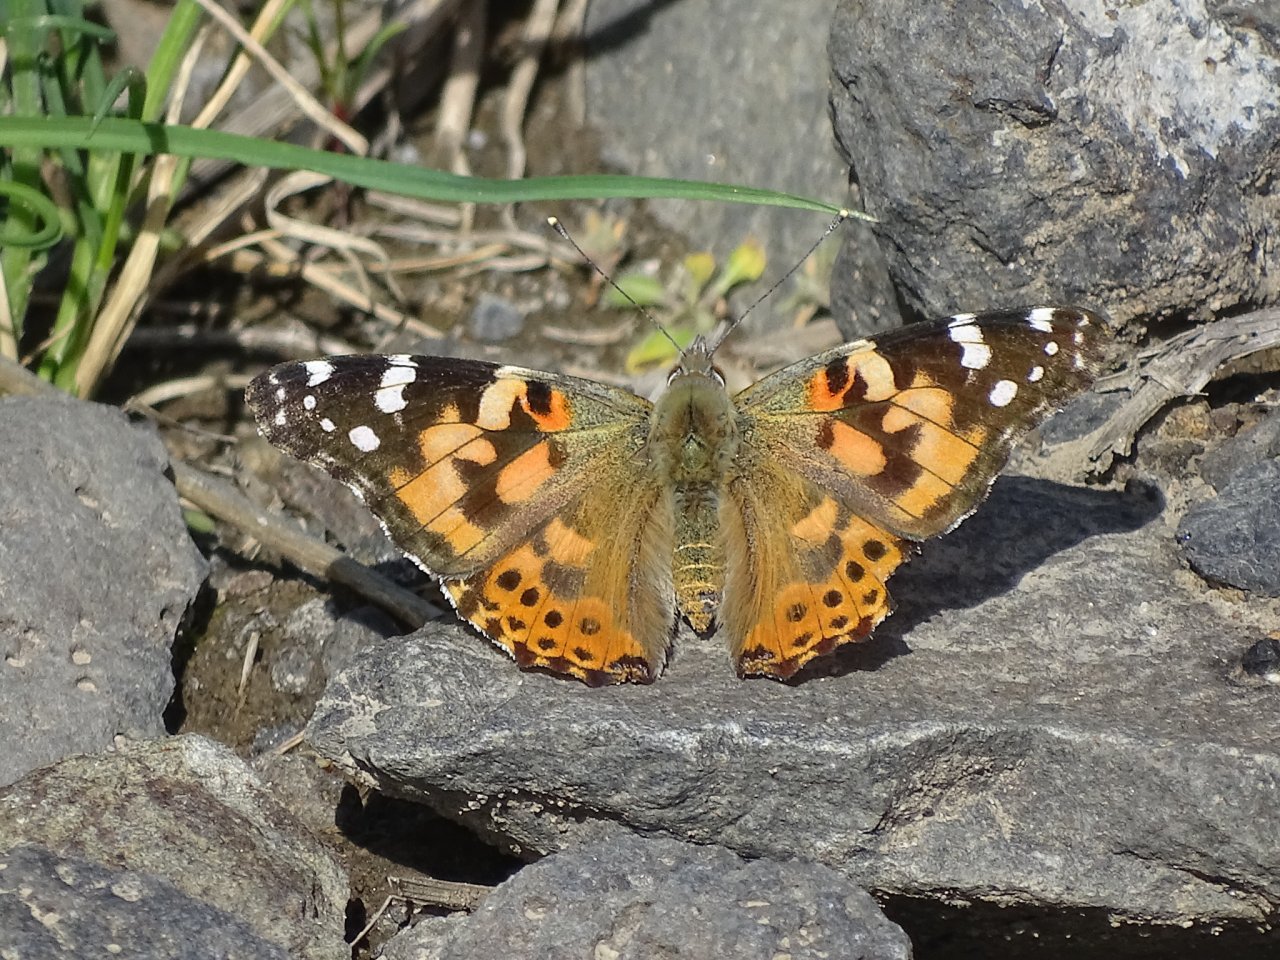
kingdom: Animalia
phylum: Arthropoda
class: Insecta
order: Lepidoptera
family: Nymphalidae
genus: Vanessa
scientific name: Vanessa cardui
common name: Painted Lady
